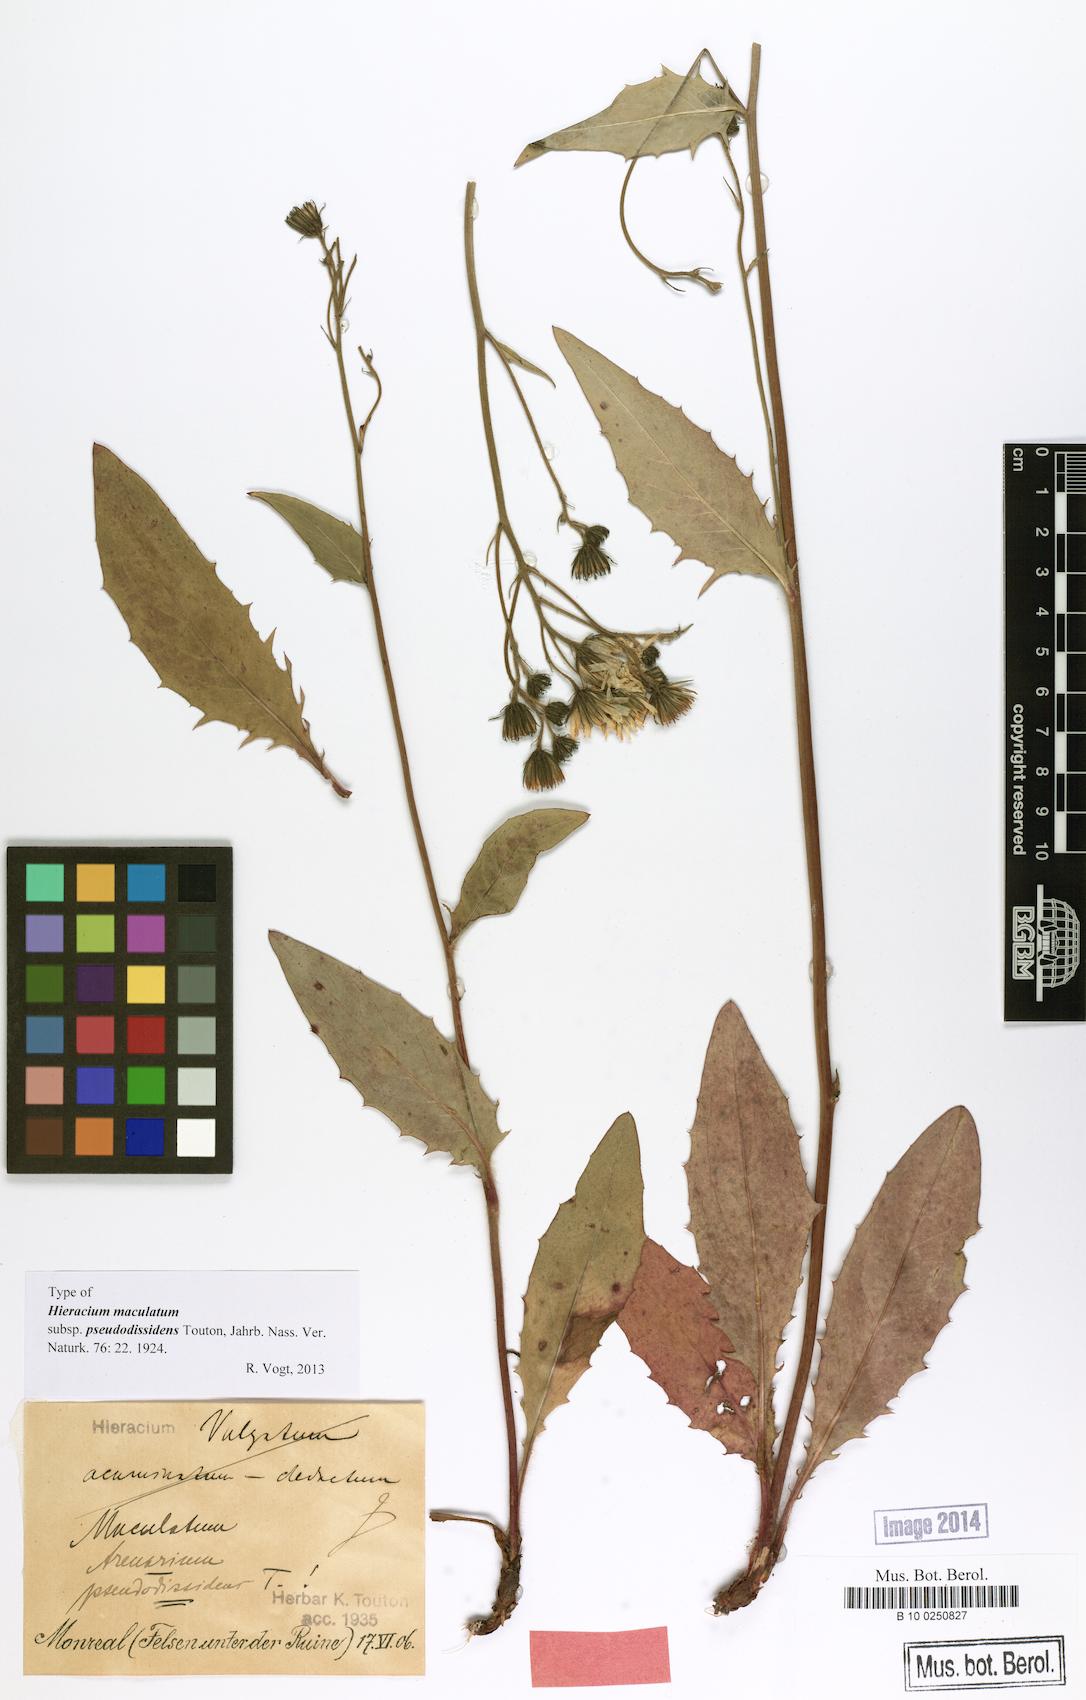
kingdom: Plantae
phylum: Tracheophyta
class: Magnoliopsida
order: Asterales
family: Asteraceae
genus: Hieracium
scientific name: Hieracium maculatum
